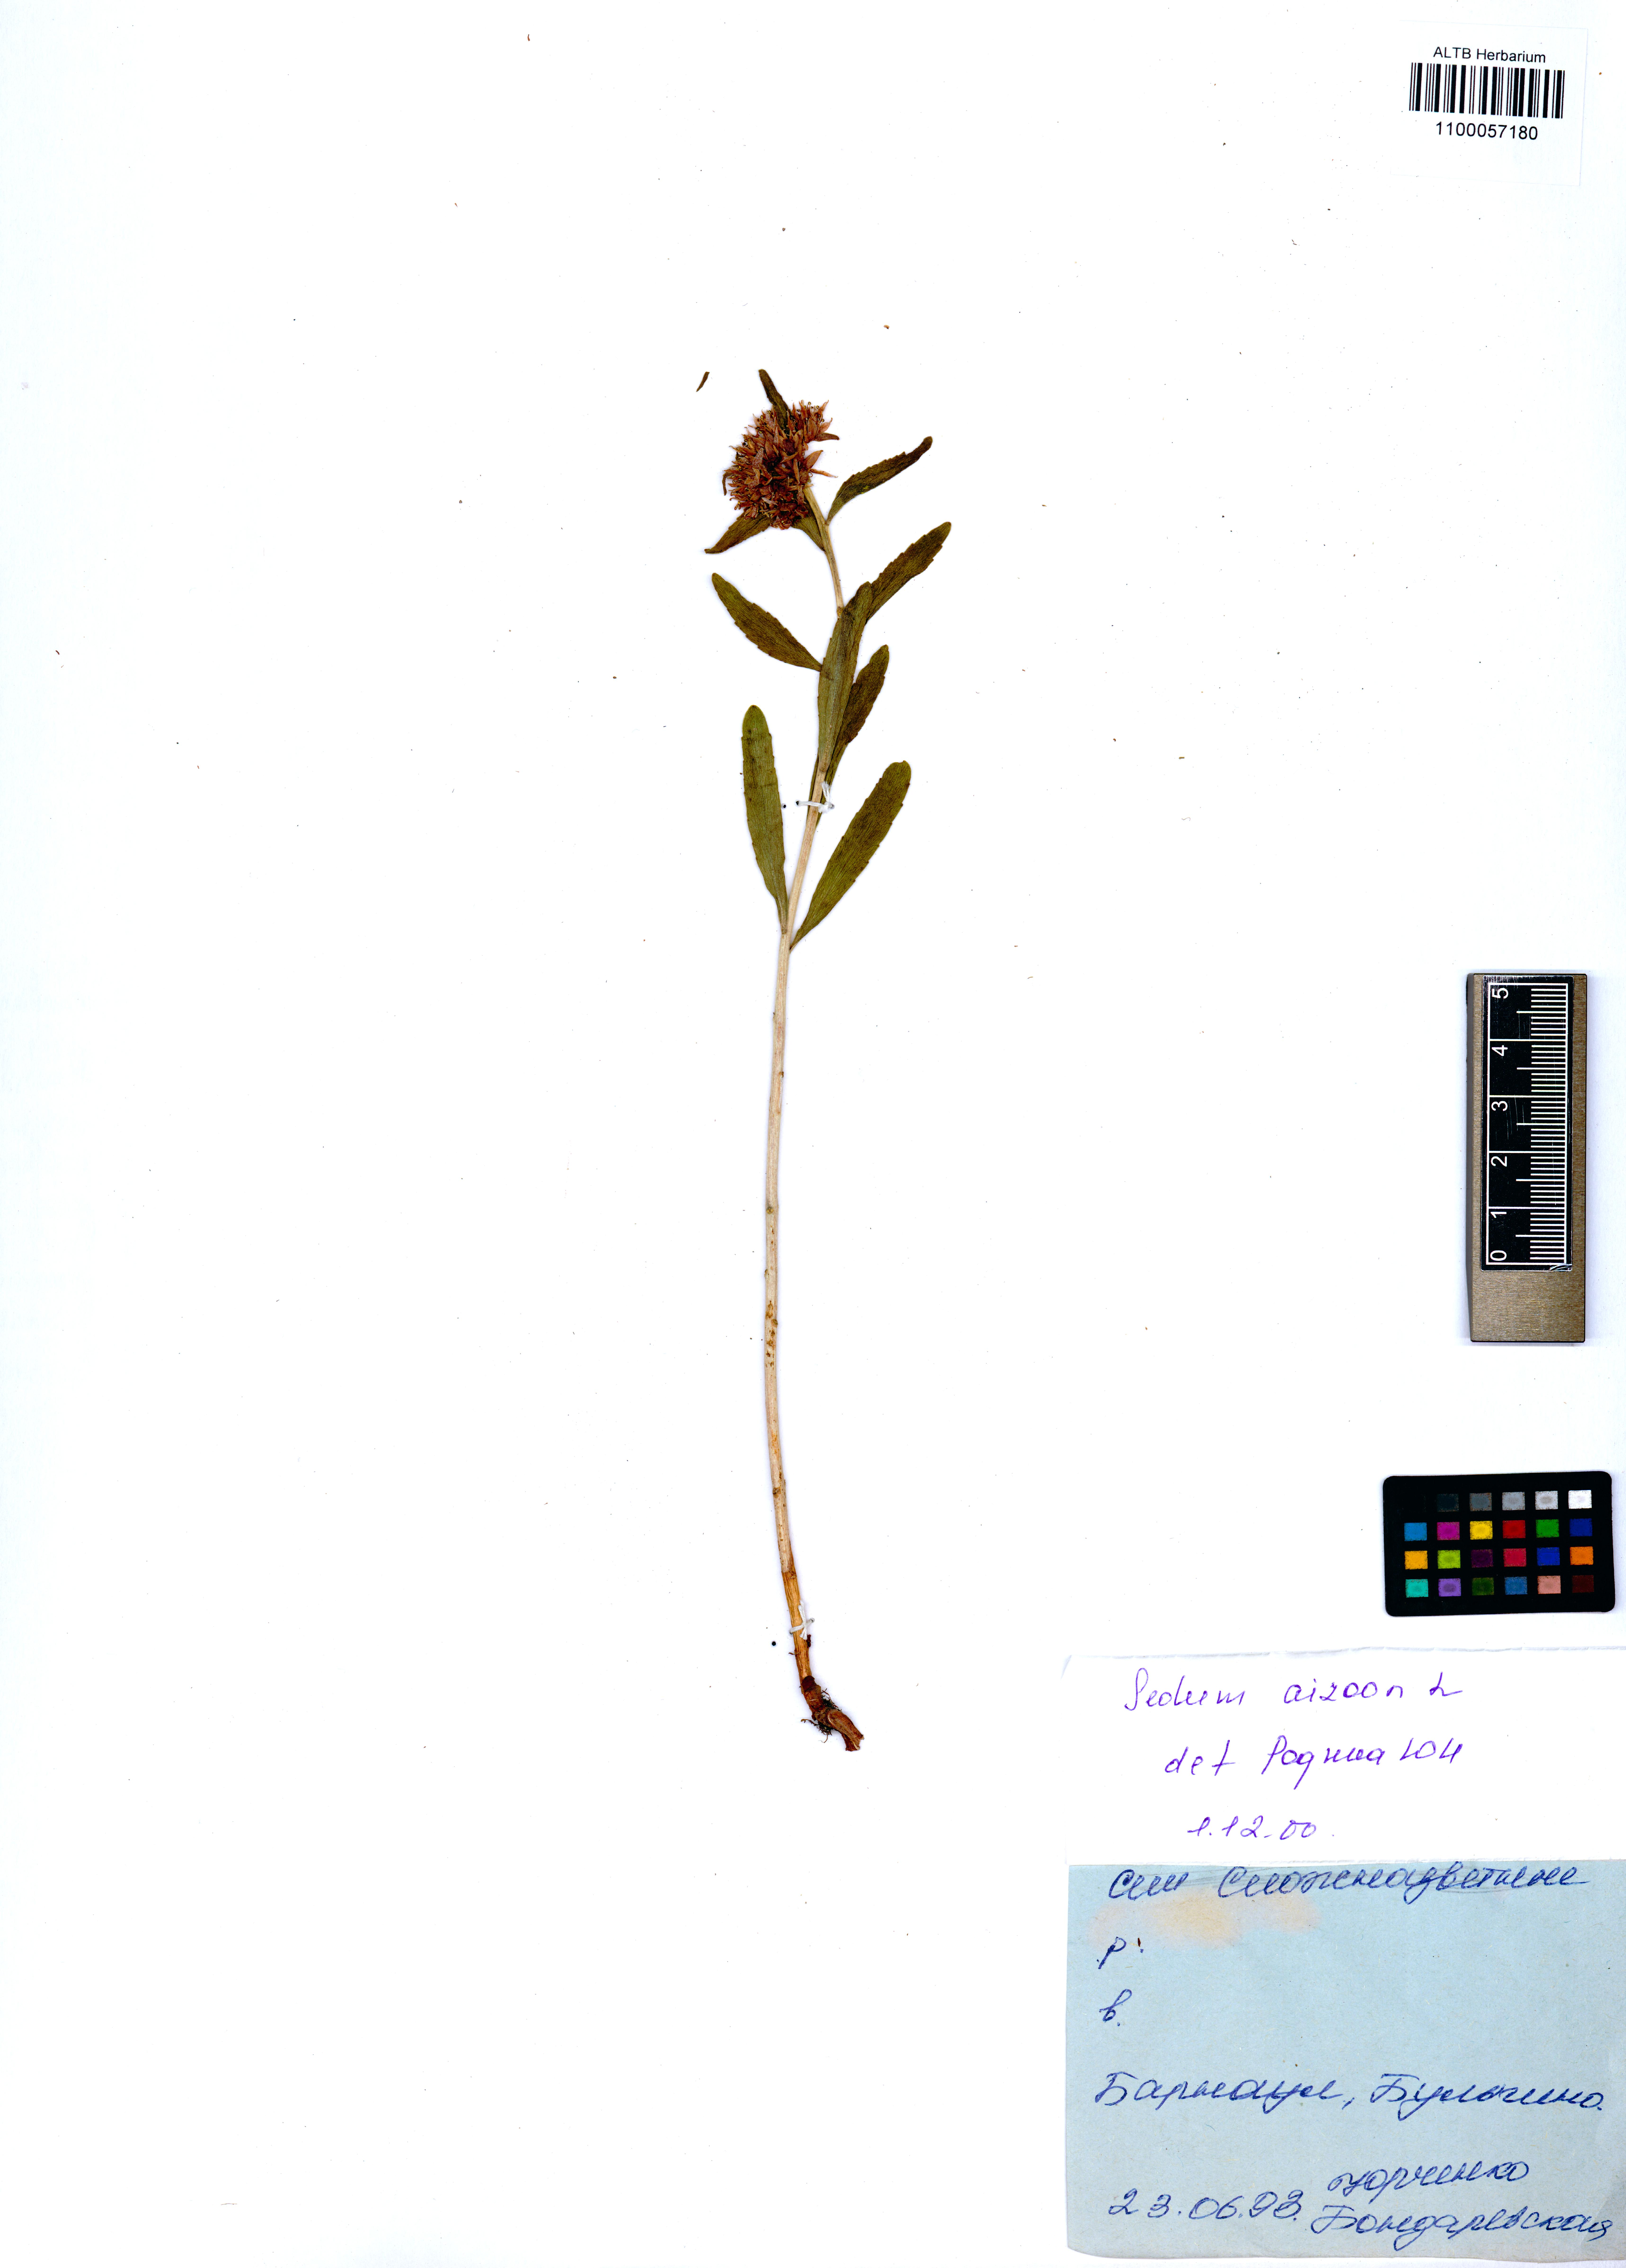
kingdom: Plantae
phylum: Tracheophyta
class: Magnoliopsida
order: Saxifragales
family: Crassulaceae
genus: Phedimus
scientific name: Phedimus aizoon
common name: Orpin aizoon
